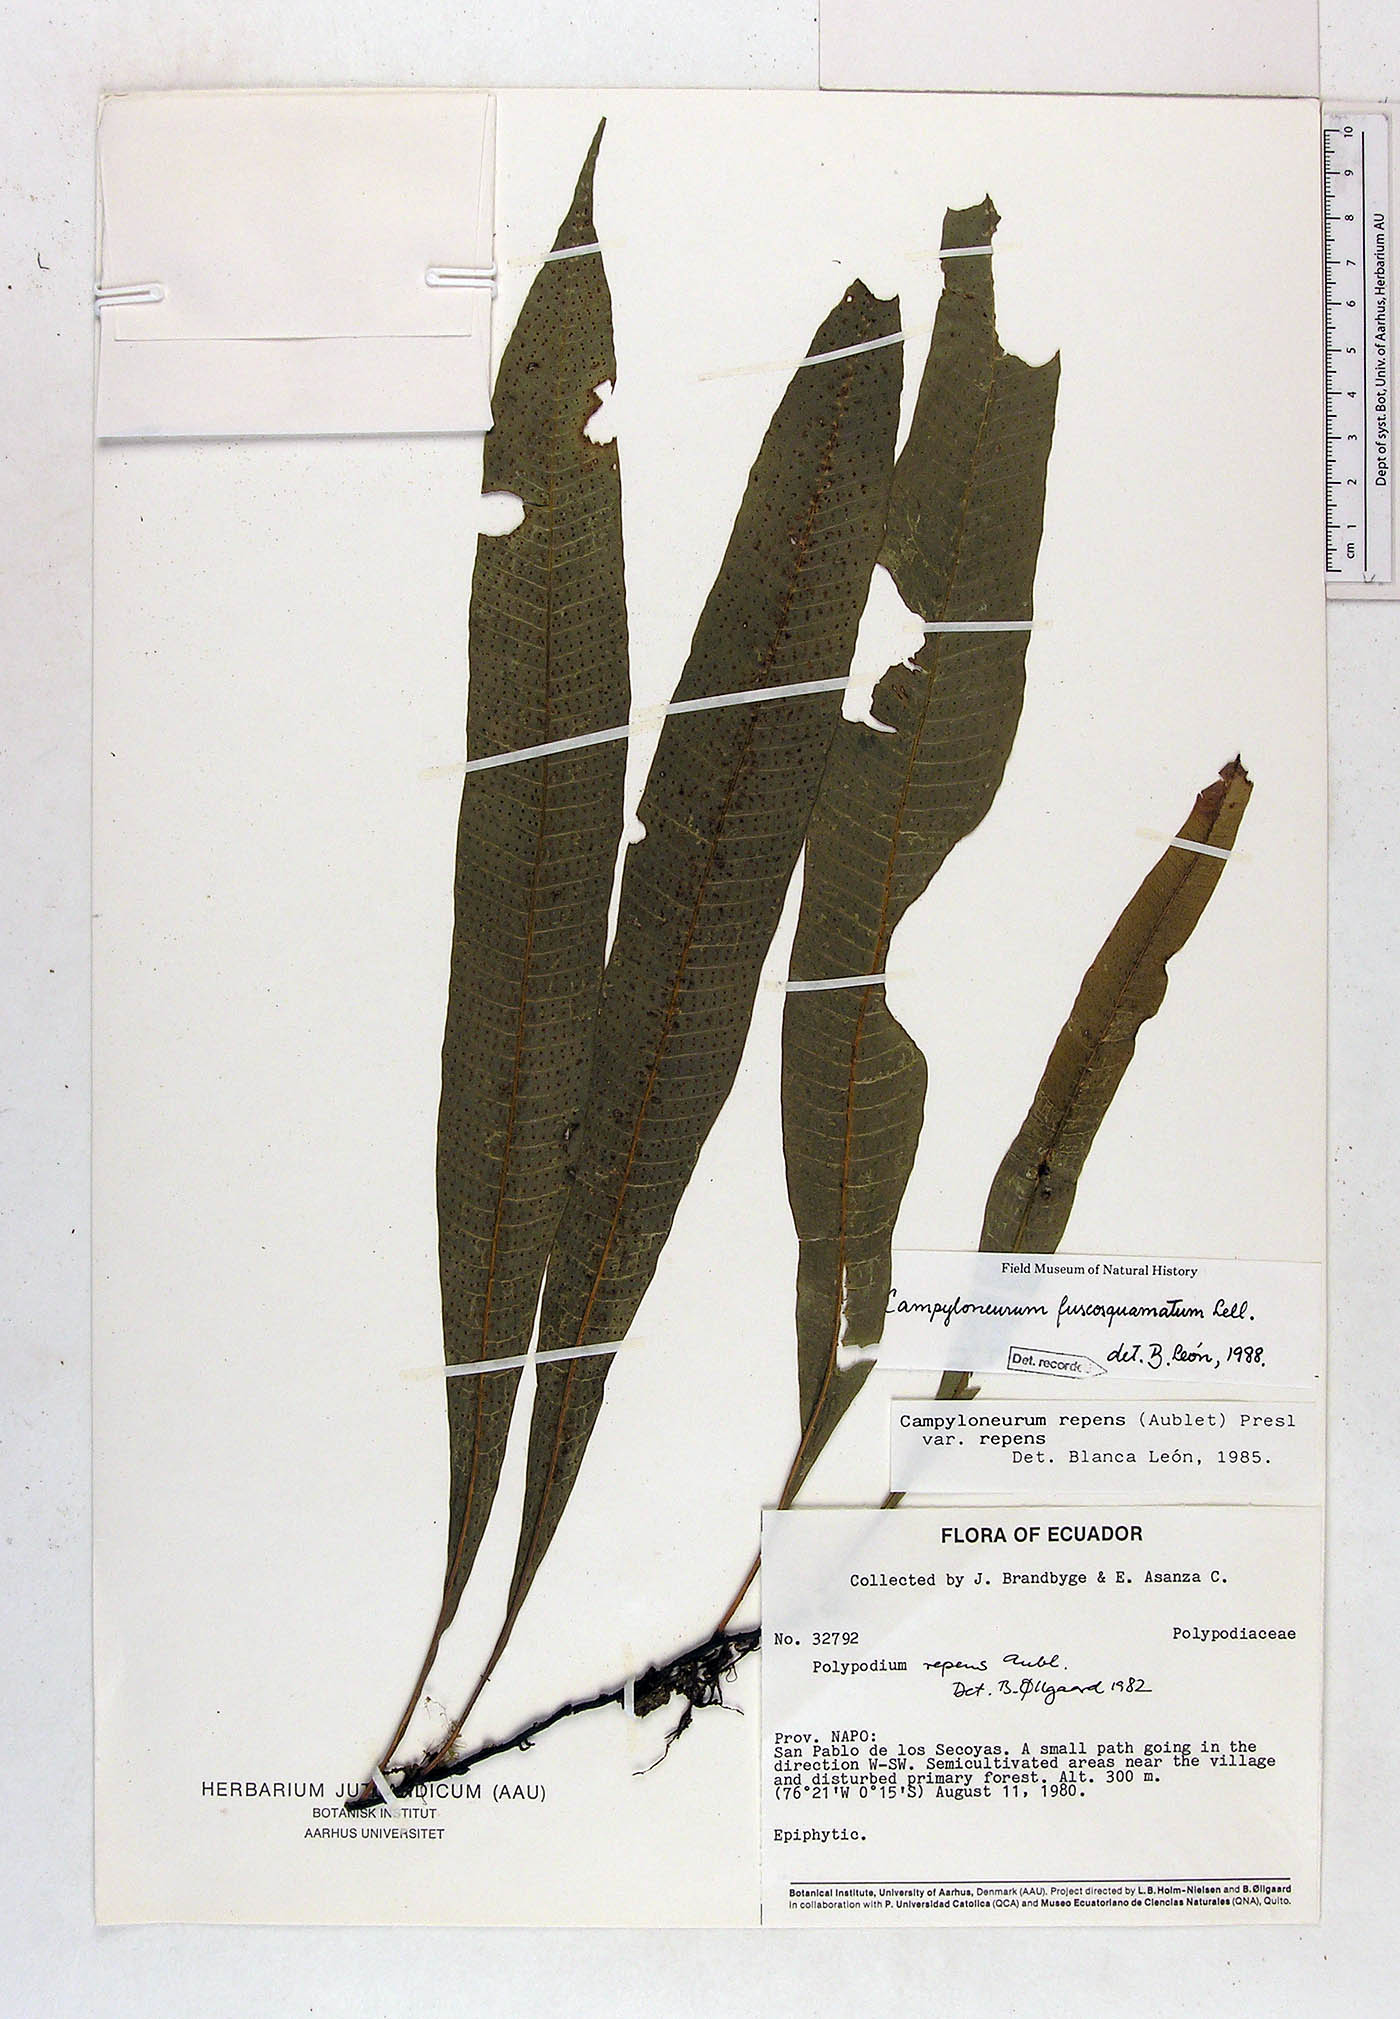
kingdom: Plantae
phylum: Tracheophyta
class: Polypodiopsida
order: Polypodiales
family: Polypodiaceae
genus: Campyloneurum
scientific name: Campyloneurum fuscosquamatum
